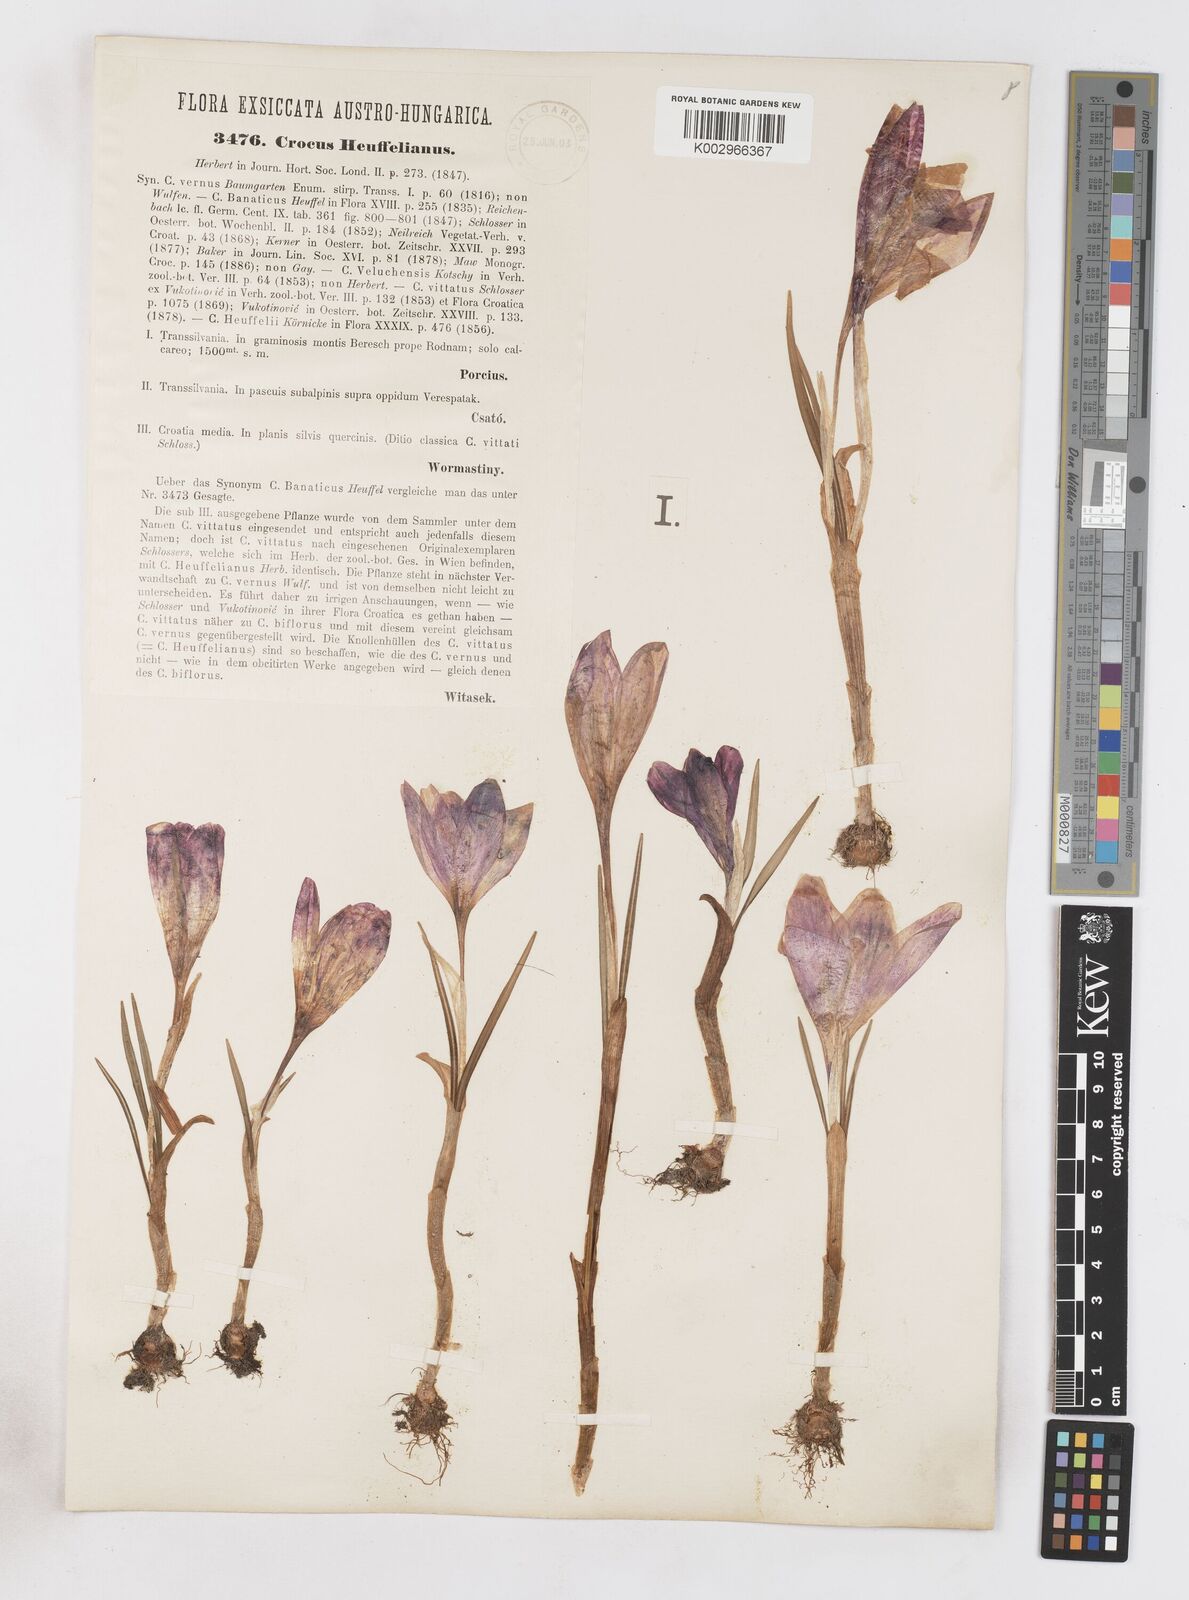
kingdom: Plantae
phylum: Tracheophyta
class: Liliopsida
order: Asparagales
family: Iridaceae
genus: Crocus
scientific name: Crocus vernus
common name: Spring crocus
